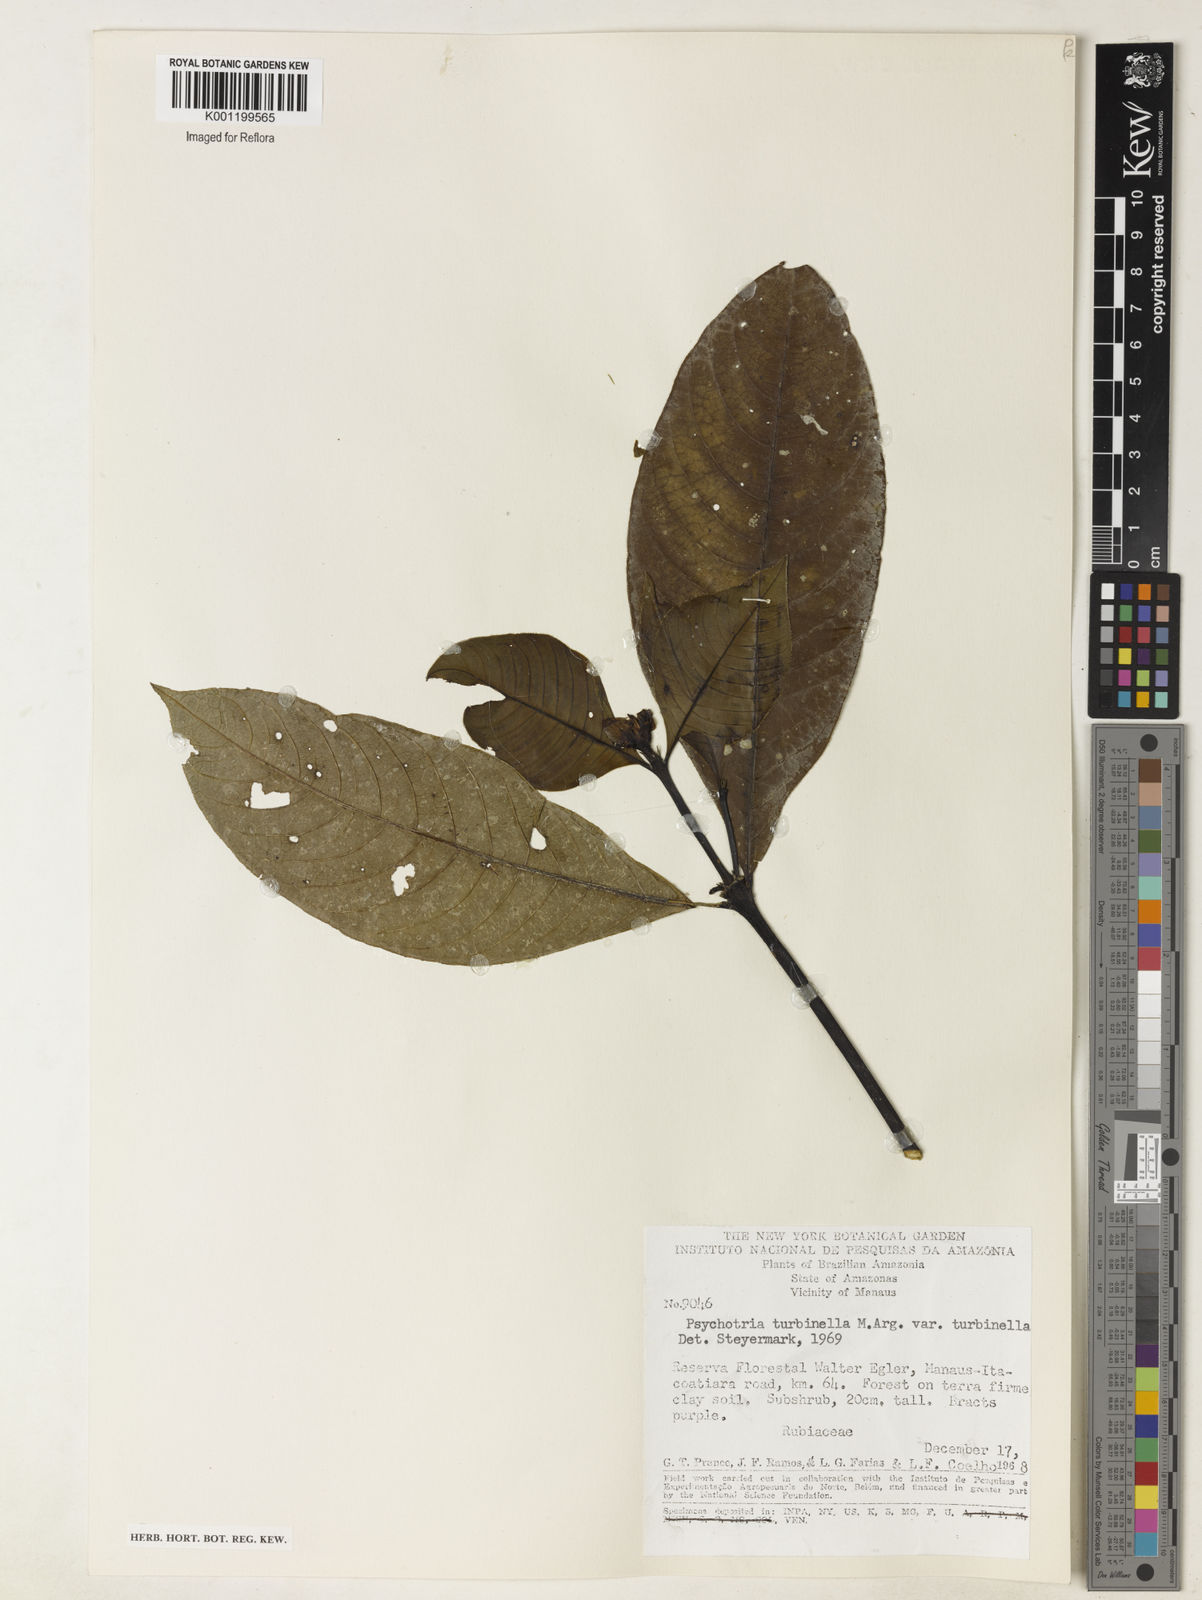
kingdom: Plantae
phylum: Tracheophyta
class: Magnoliopsida
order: Gentianales
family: Rubiaceae
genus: Psychotria
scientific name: Psychotria
